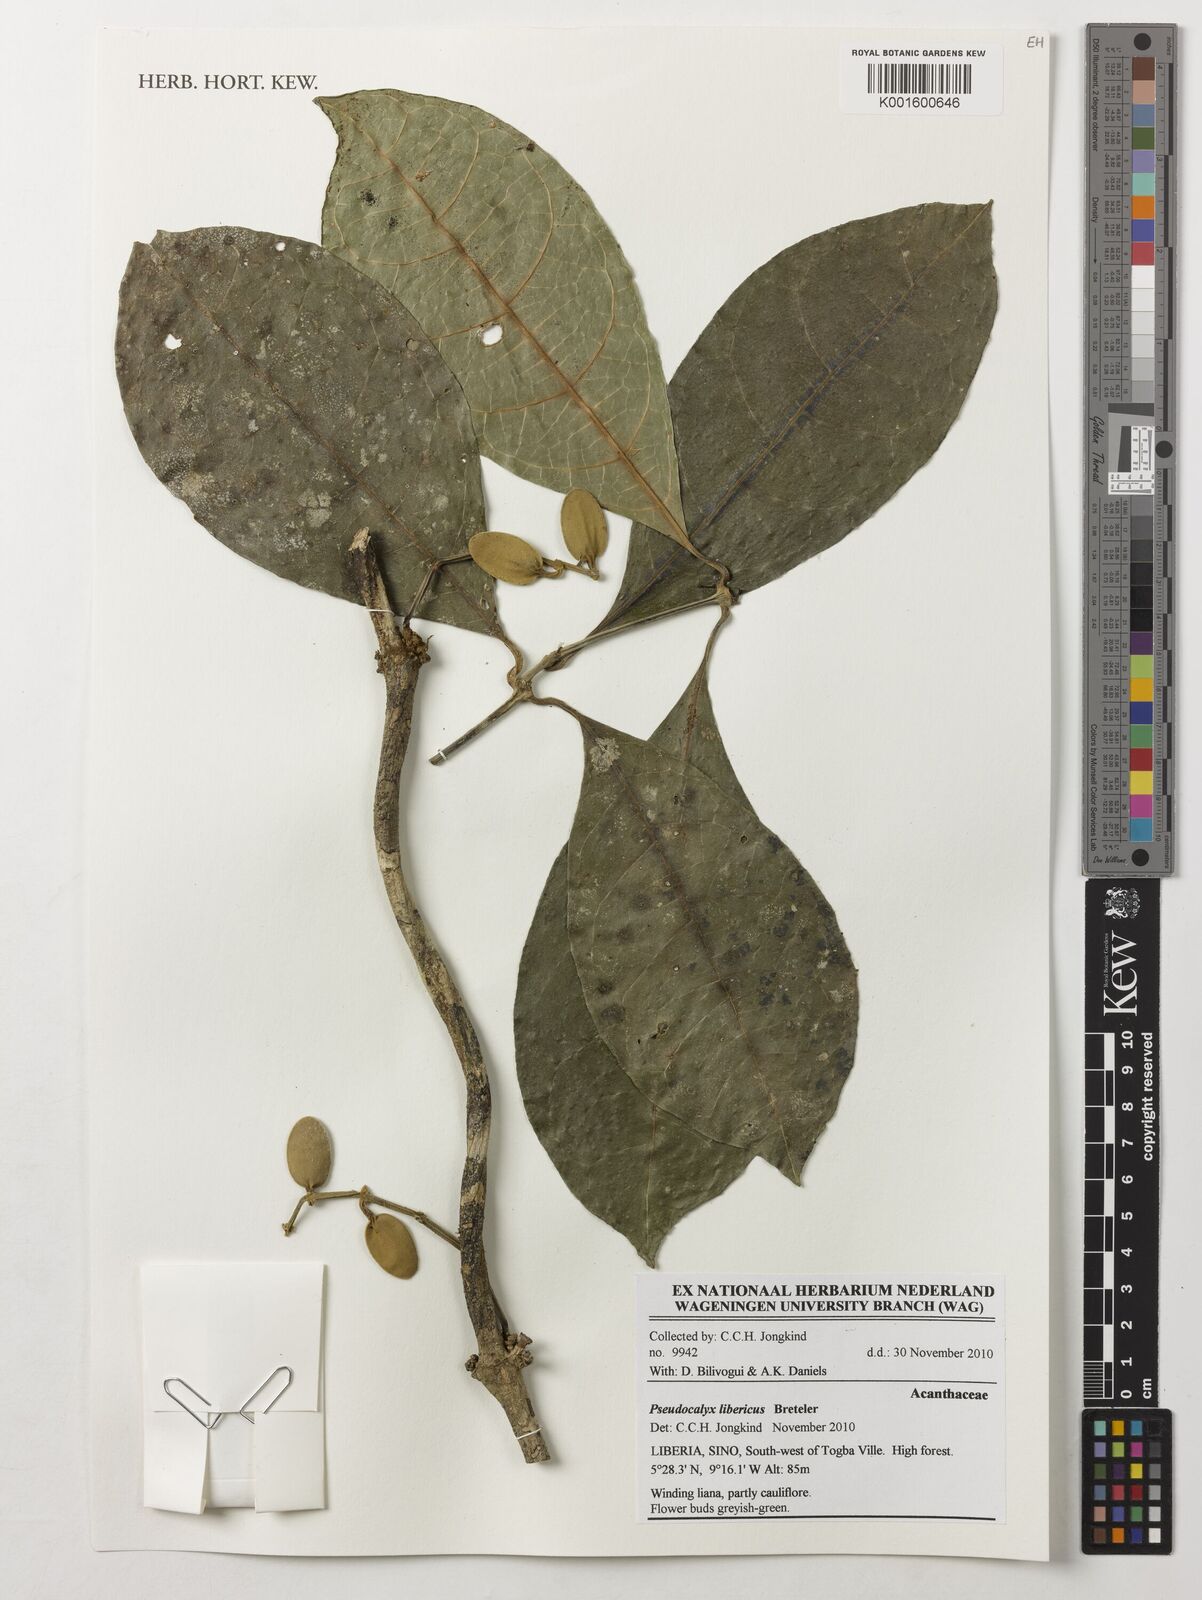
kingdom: Plantae
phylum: Tracheophyta
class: Magnoliopsida
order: Lamiales
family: Acanthaceae
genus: Pseudocalyx
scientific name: Pseudocalyx libericus
